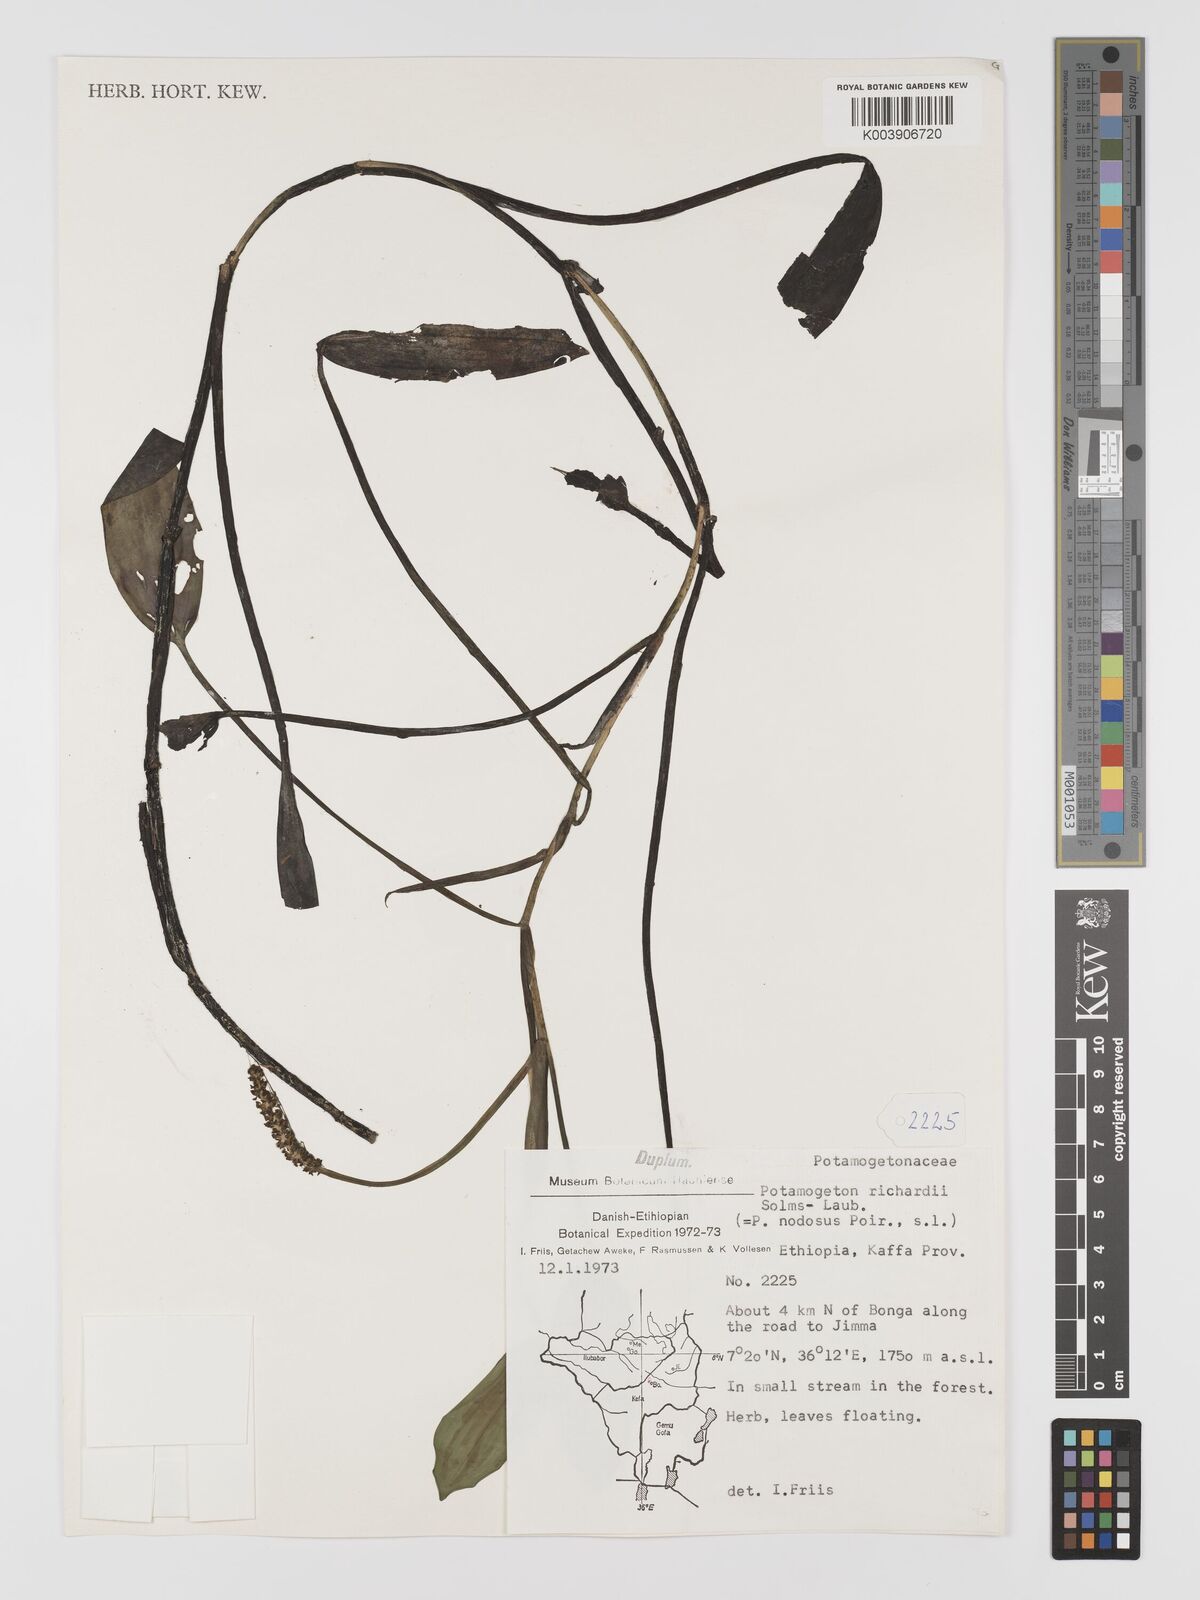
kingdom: Plantae
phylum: Tracheophyta
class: Liliopsida
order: Alismatales
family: Potamogetonaceae
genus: Potamogeton
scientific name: Potamogeton nodosus
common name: Loddon pondweed
